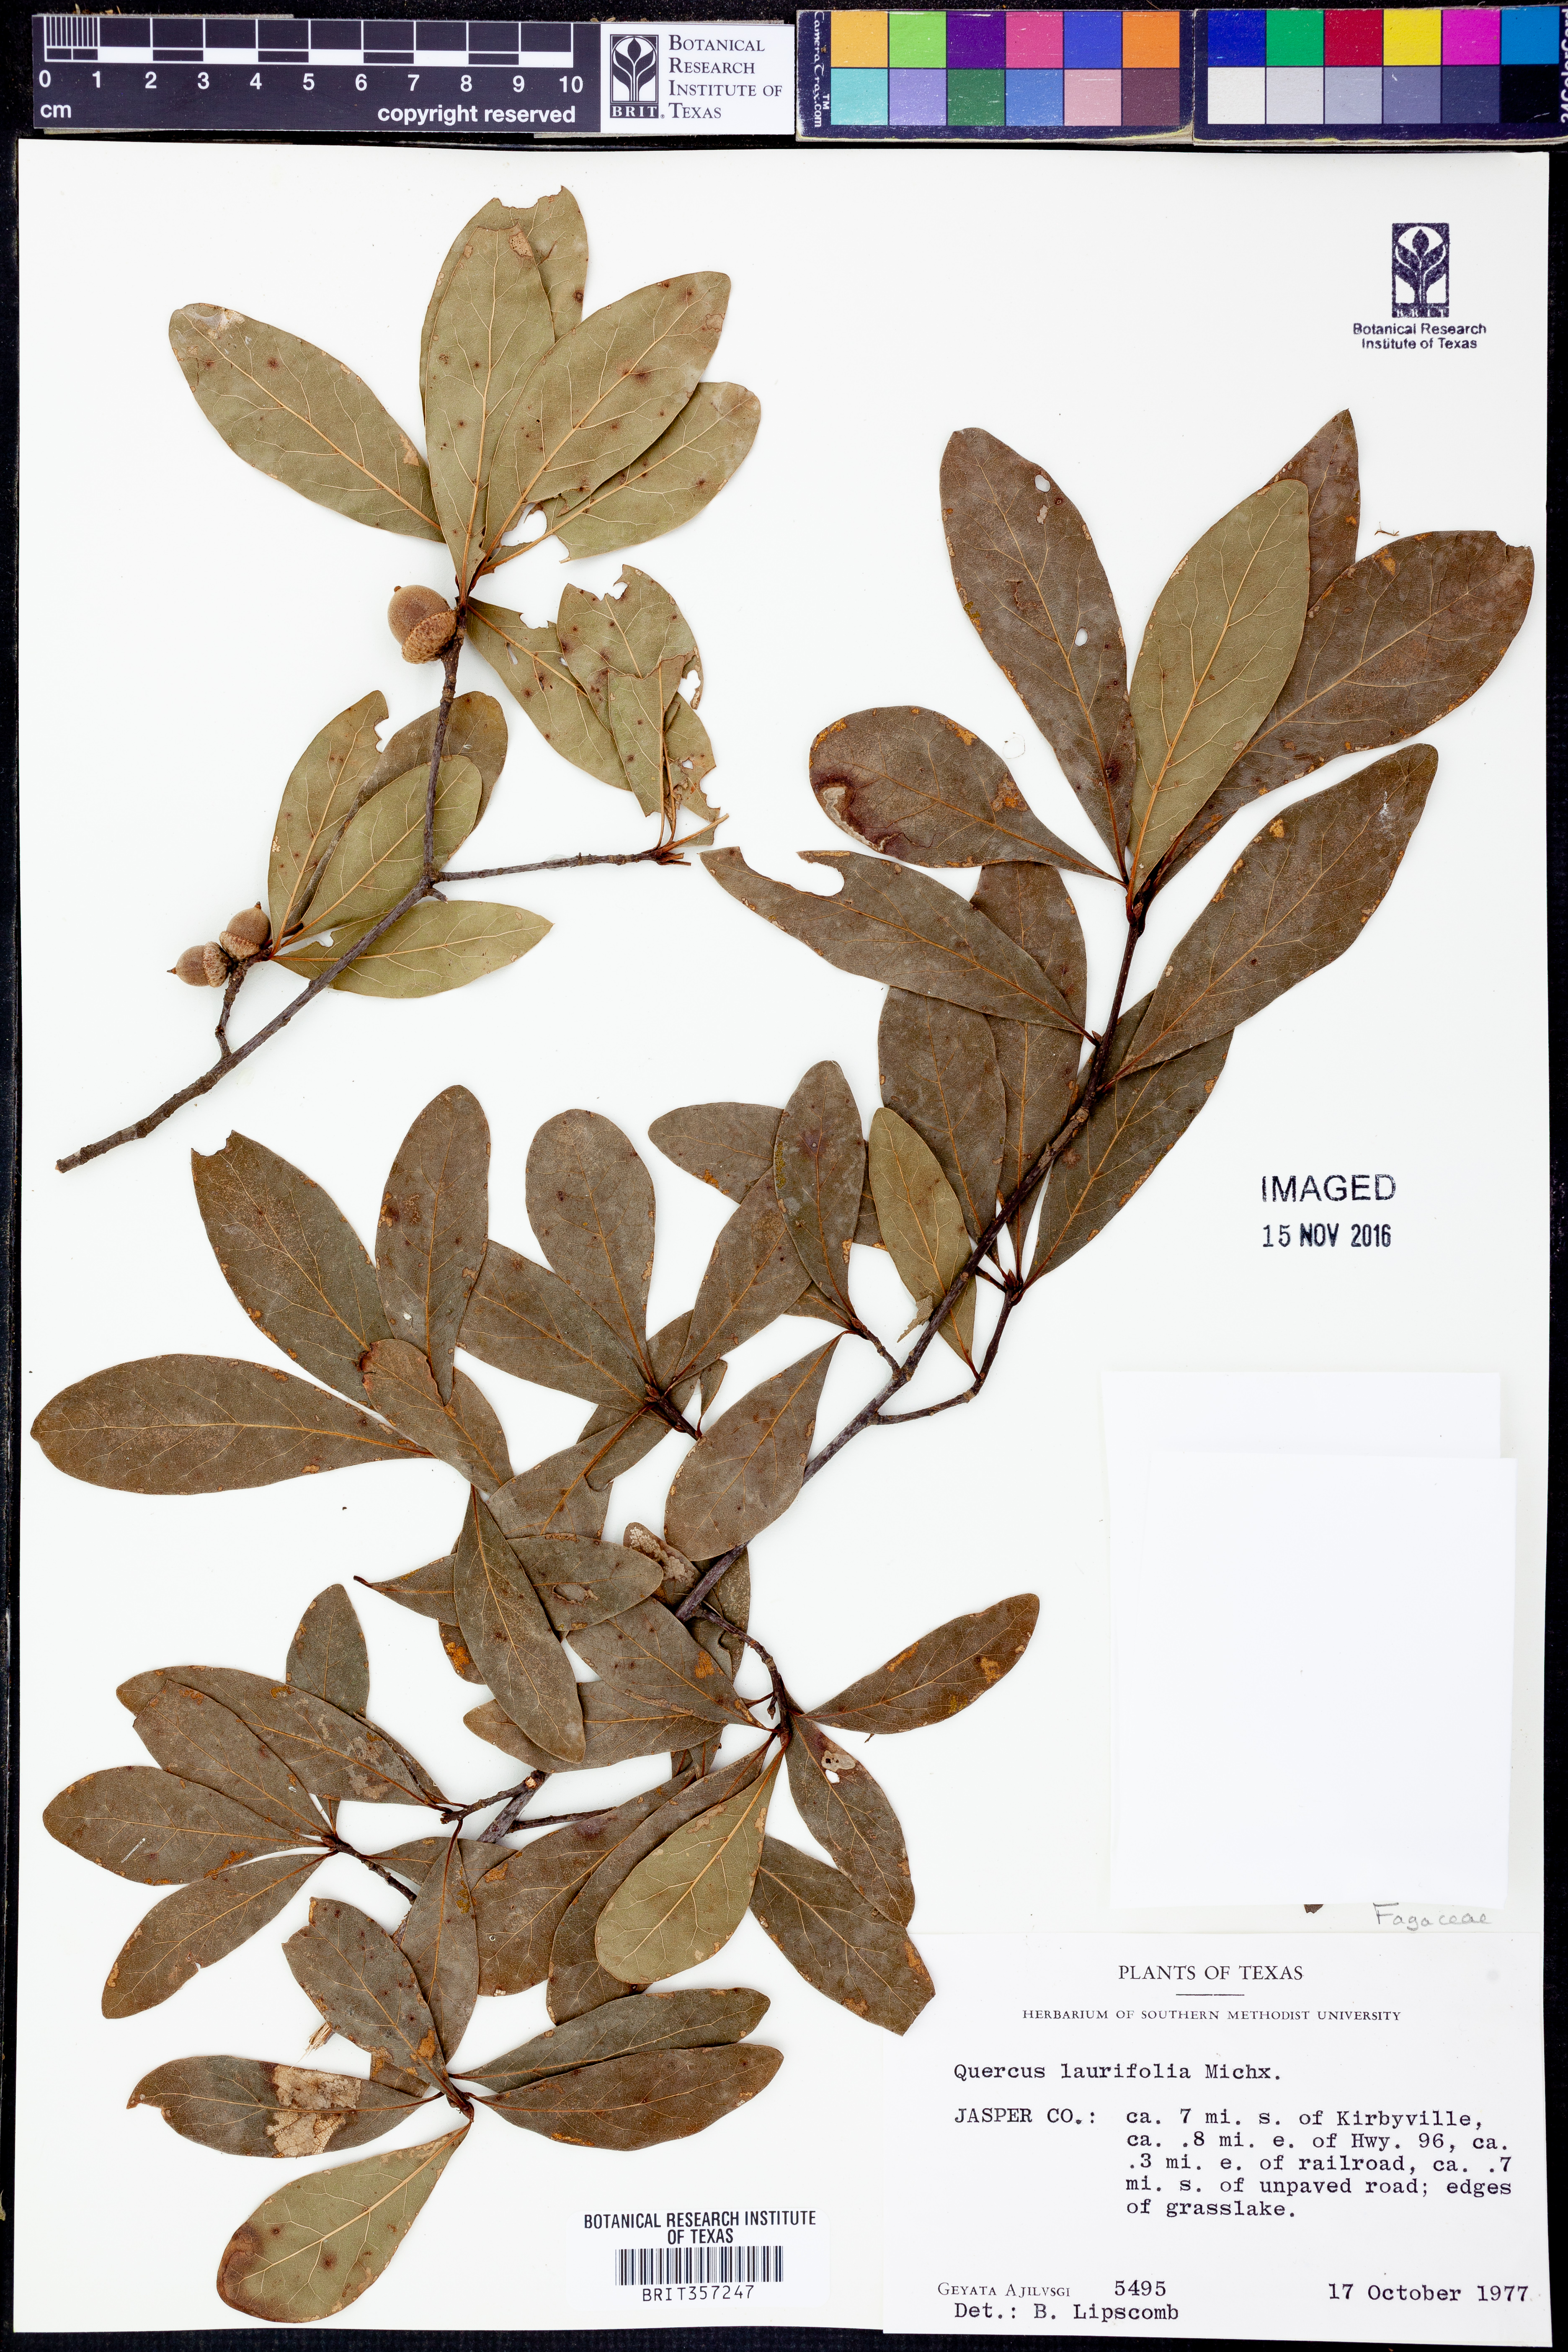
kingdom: Plantae
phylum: Tracheophyta
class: Magnoliopsida
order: Fagales
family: Fagaceae
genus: Quercus
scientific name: Quercus laurifolia
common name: Swamp laurel oak
